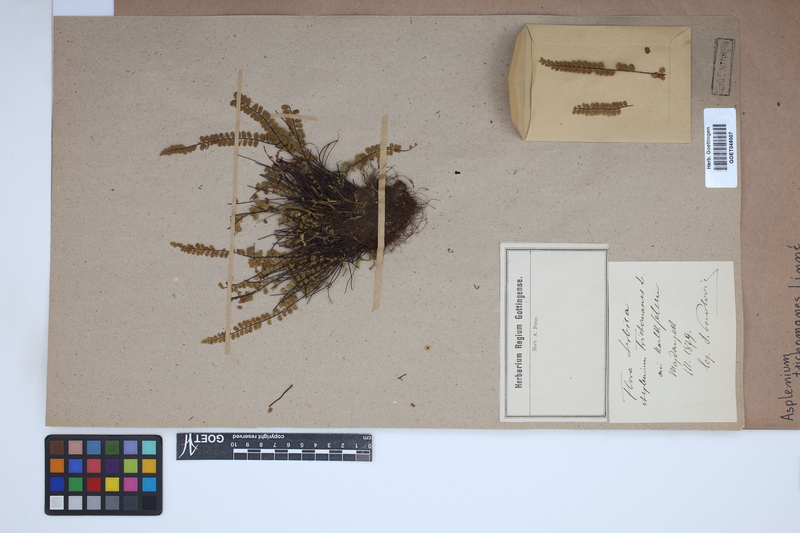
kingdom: Plantae
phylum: Tracheophyta
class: Polypodiopsida
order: Polypodiales
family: Aspleniaceae
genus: Asplenium
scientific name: Asplenium trichomanes
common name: Maidenhair spleenwort
